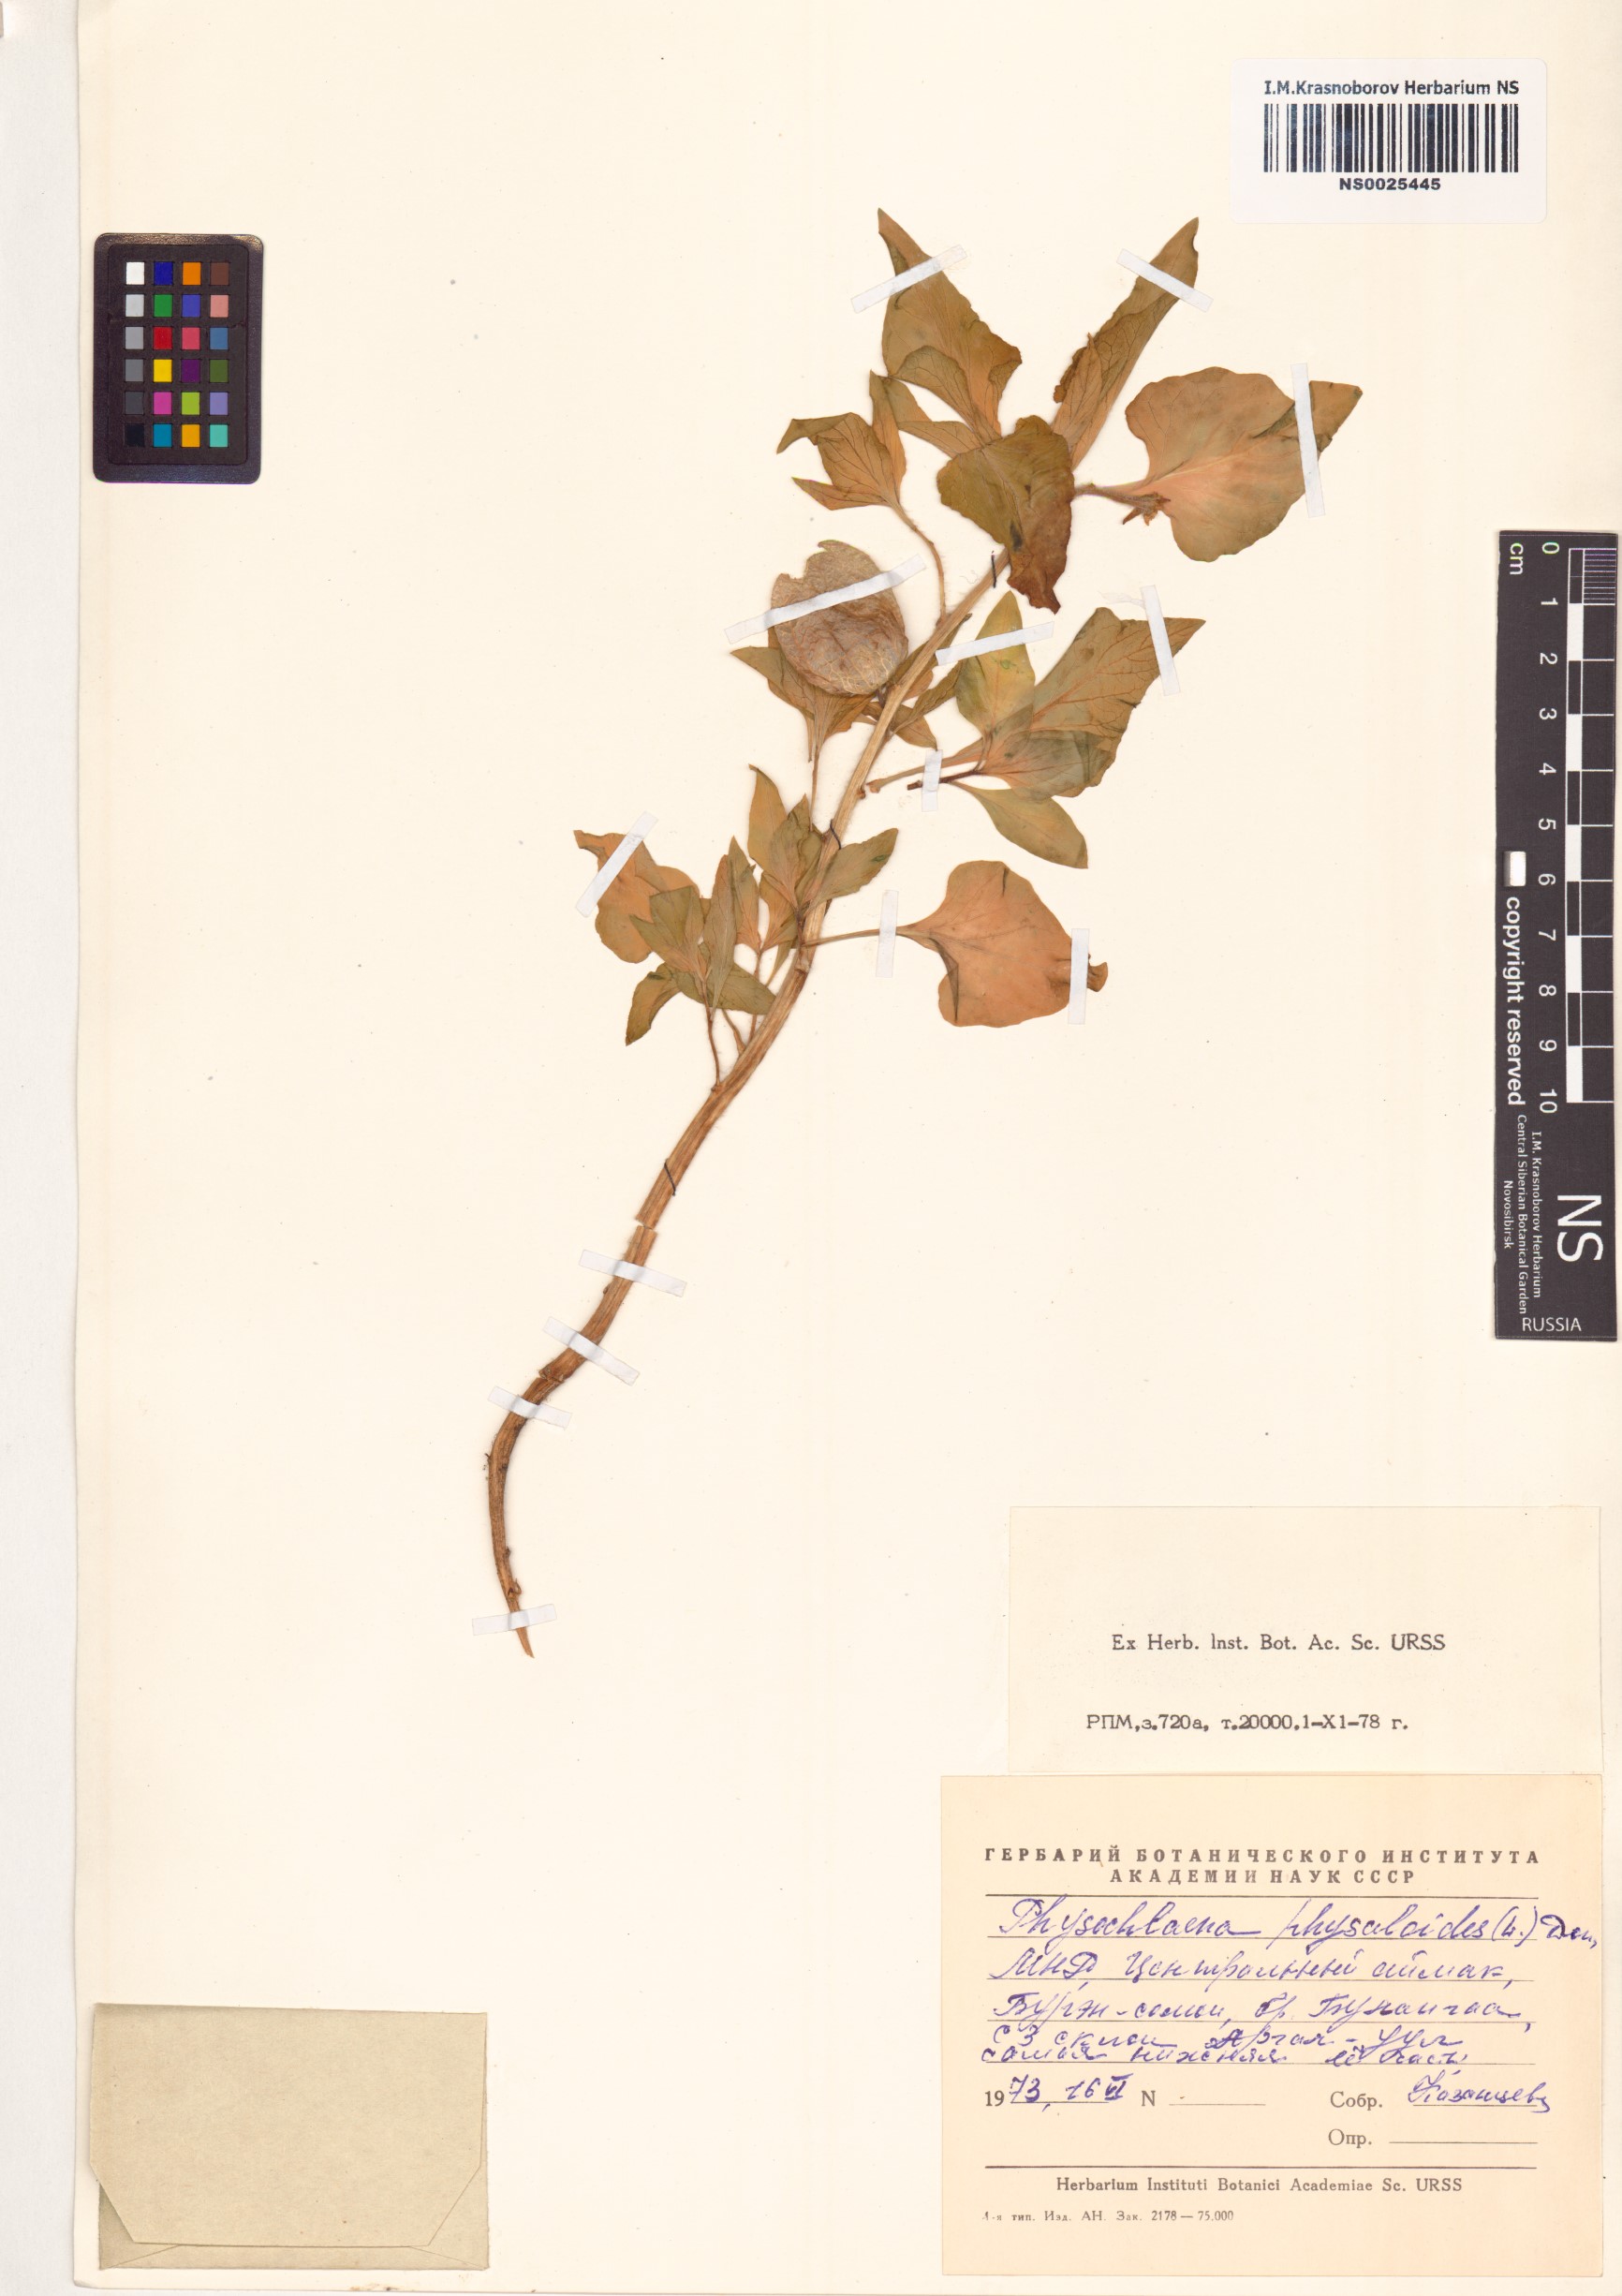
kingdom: Plantae
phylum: Tracheophyta
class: Magnoliopsida
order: Solanales
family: Solanaceae
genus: Physochlaina
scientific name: Physochlaina physaloides
